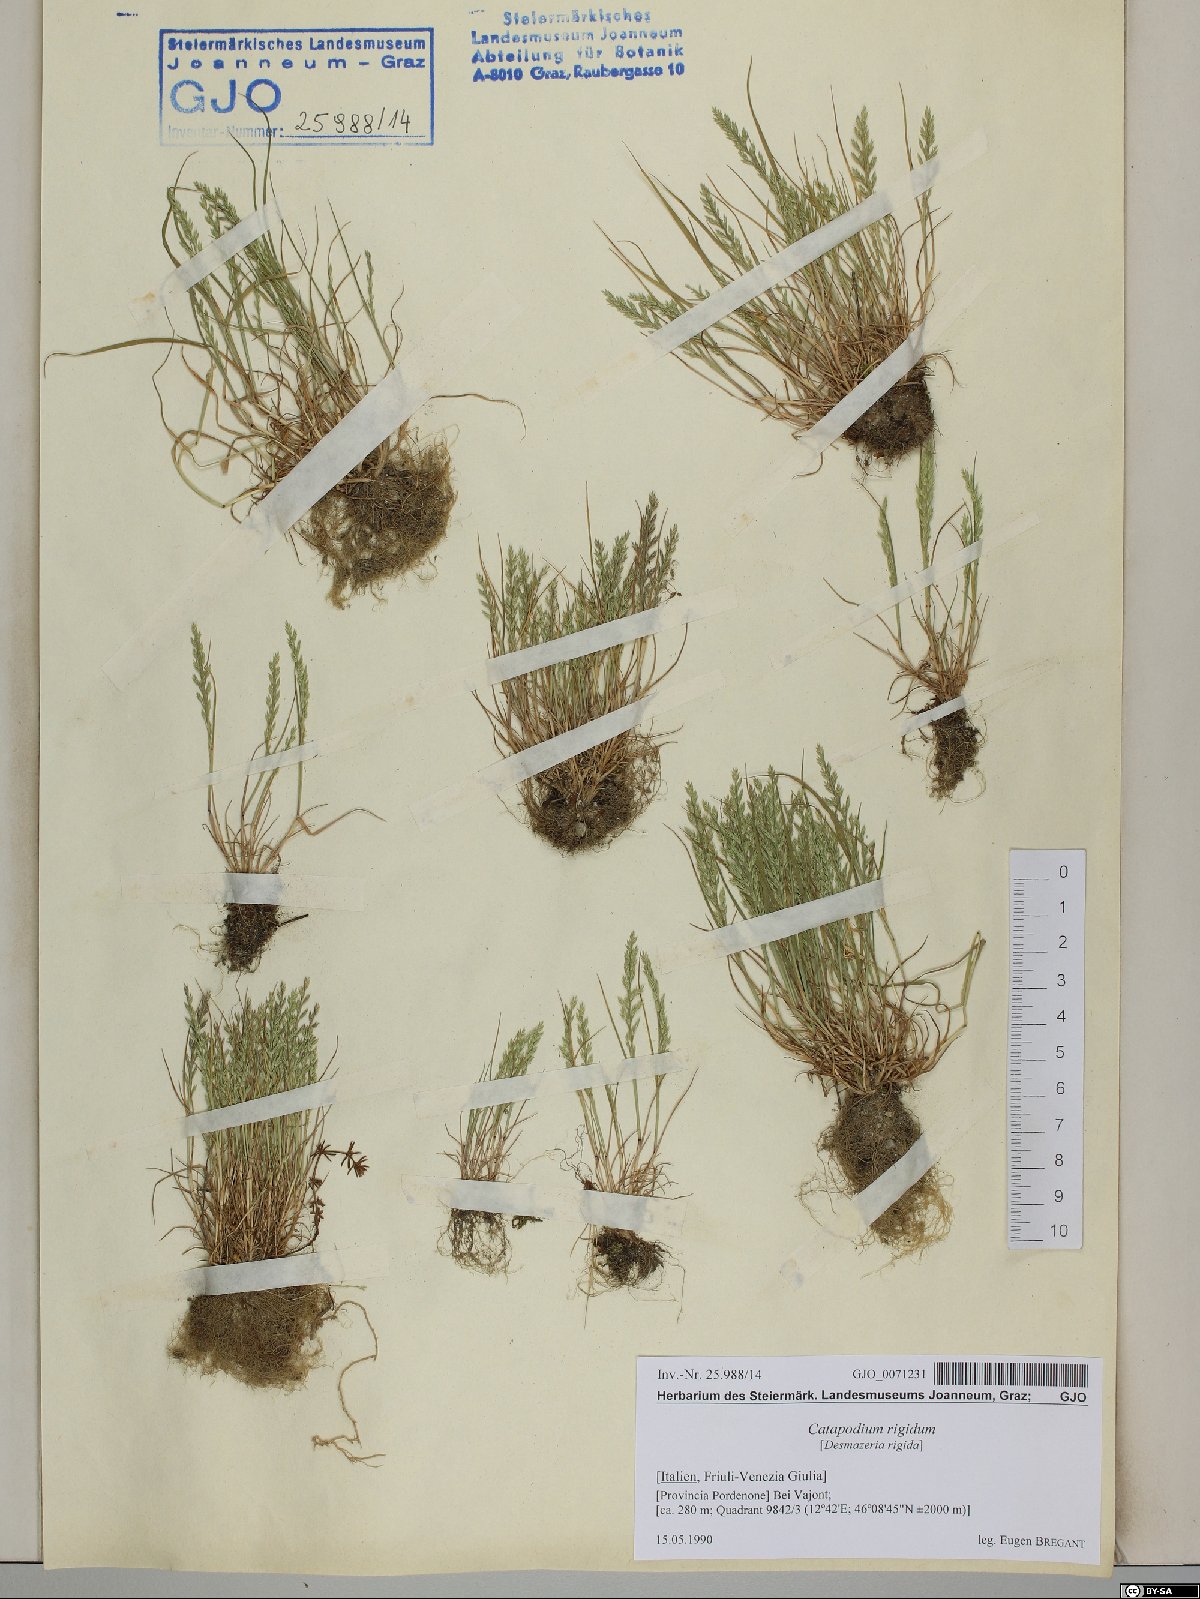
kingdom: Plantae
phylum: Tracheophyta
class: Liliopsida
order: Poales
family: Poaceae
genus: Catapodium
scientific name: Catapodium rigidum
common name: Fern-grass
